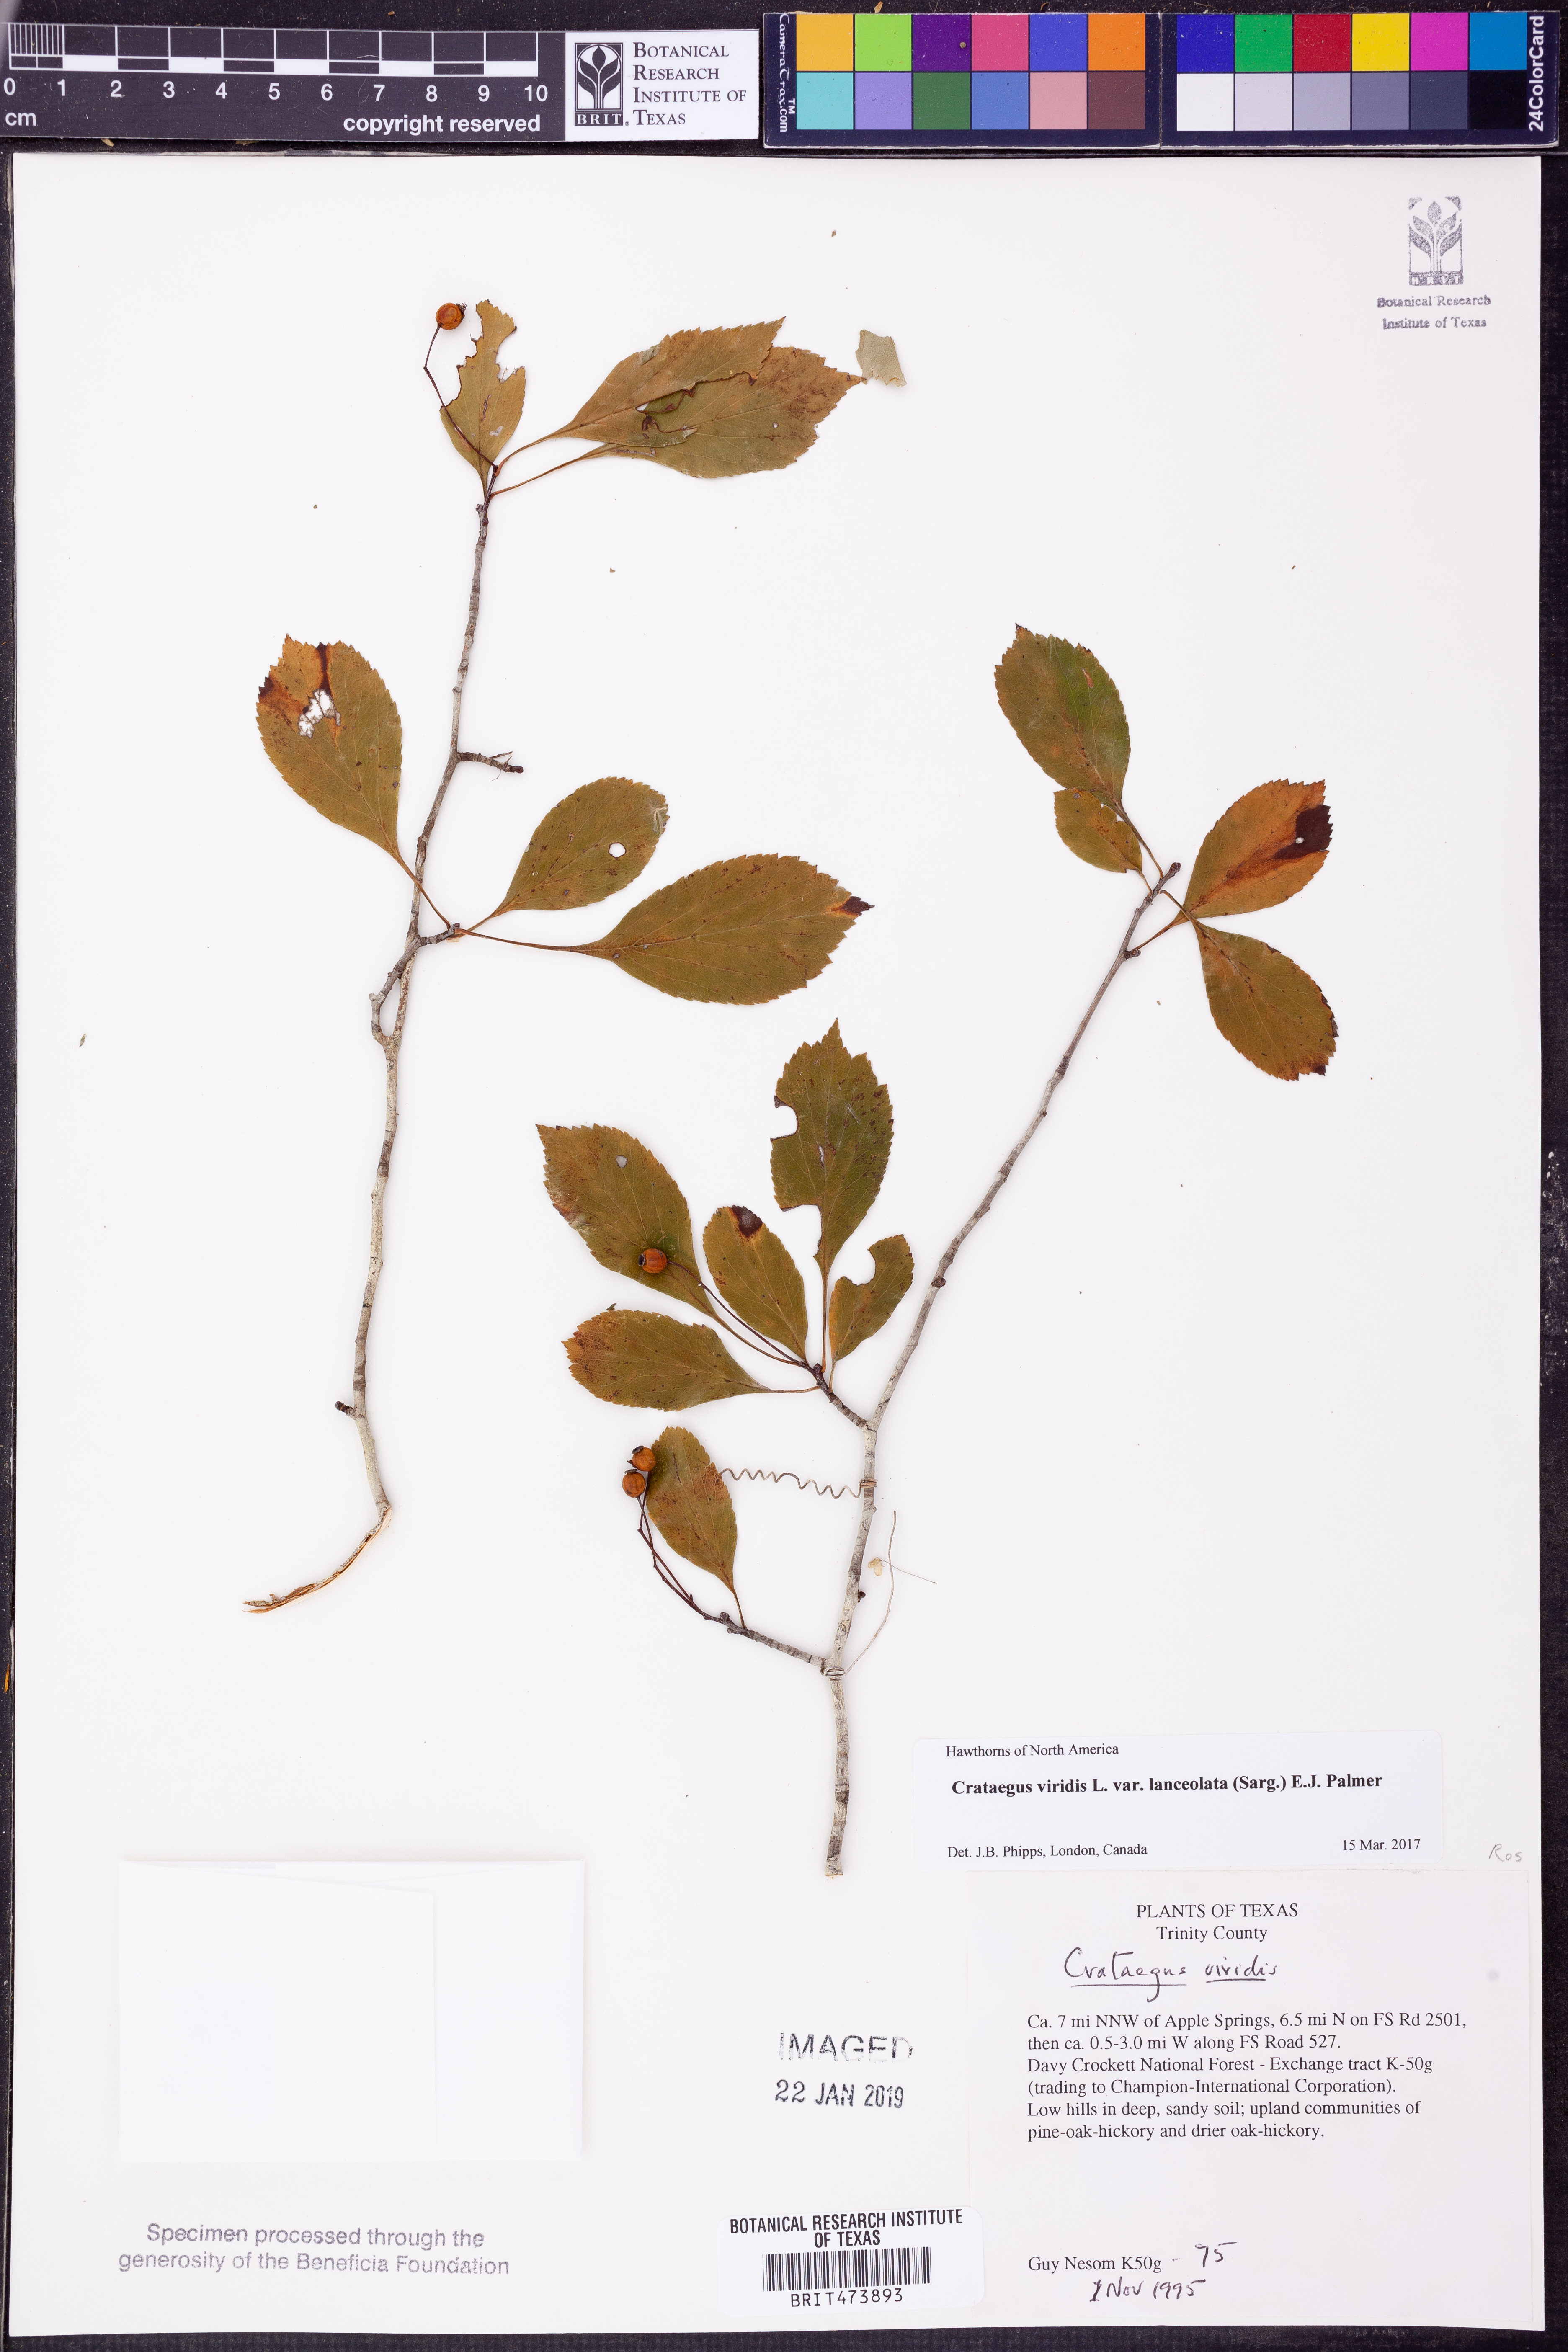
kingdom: Plantae
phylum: Tracheophyta
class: Magnoliopsida
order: Rosales
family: Rosaceae
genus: Crataegus
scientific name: Crataegus viridis
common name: Southernthorn
